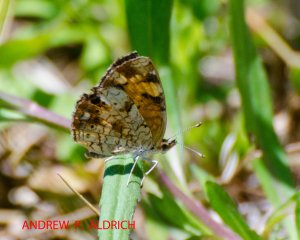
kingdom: Animalia
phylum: Arthropoda
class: Insecta
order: Lepidoptera
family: Nymphalidae
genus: Phyciodes
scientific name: Phyciodes tharos
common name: Pearl Crescent
